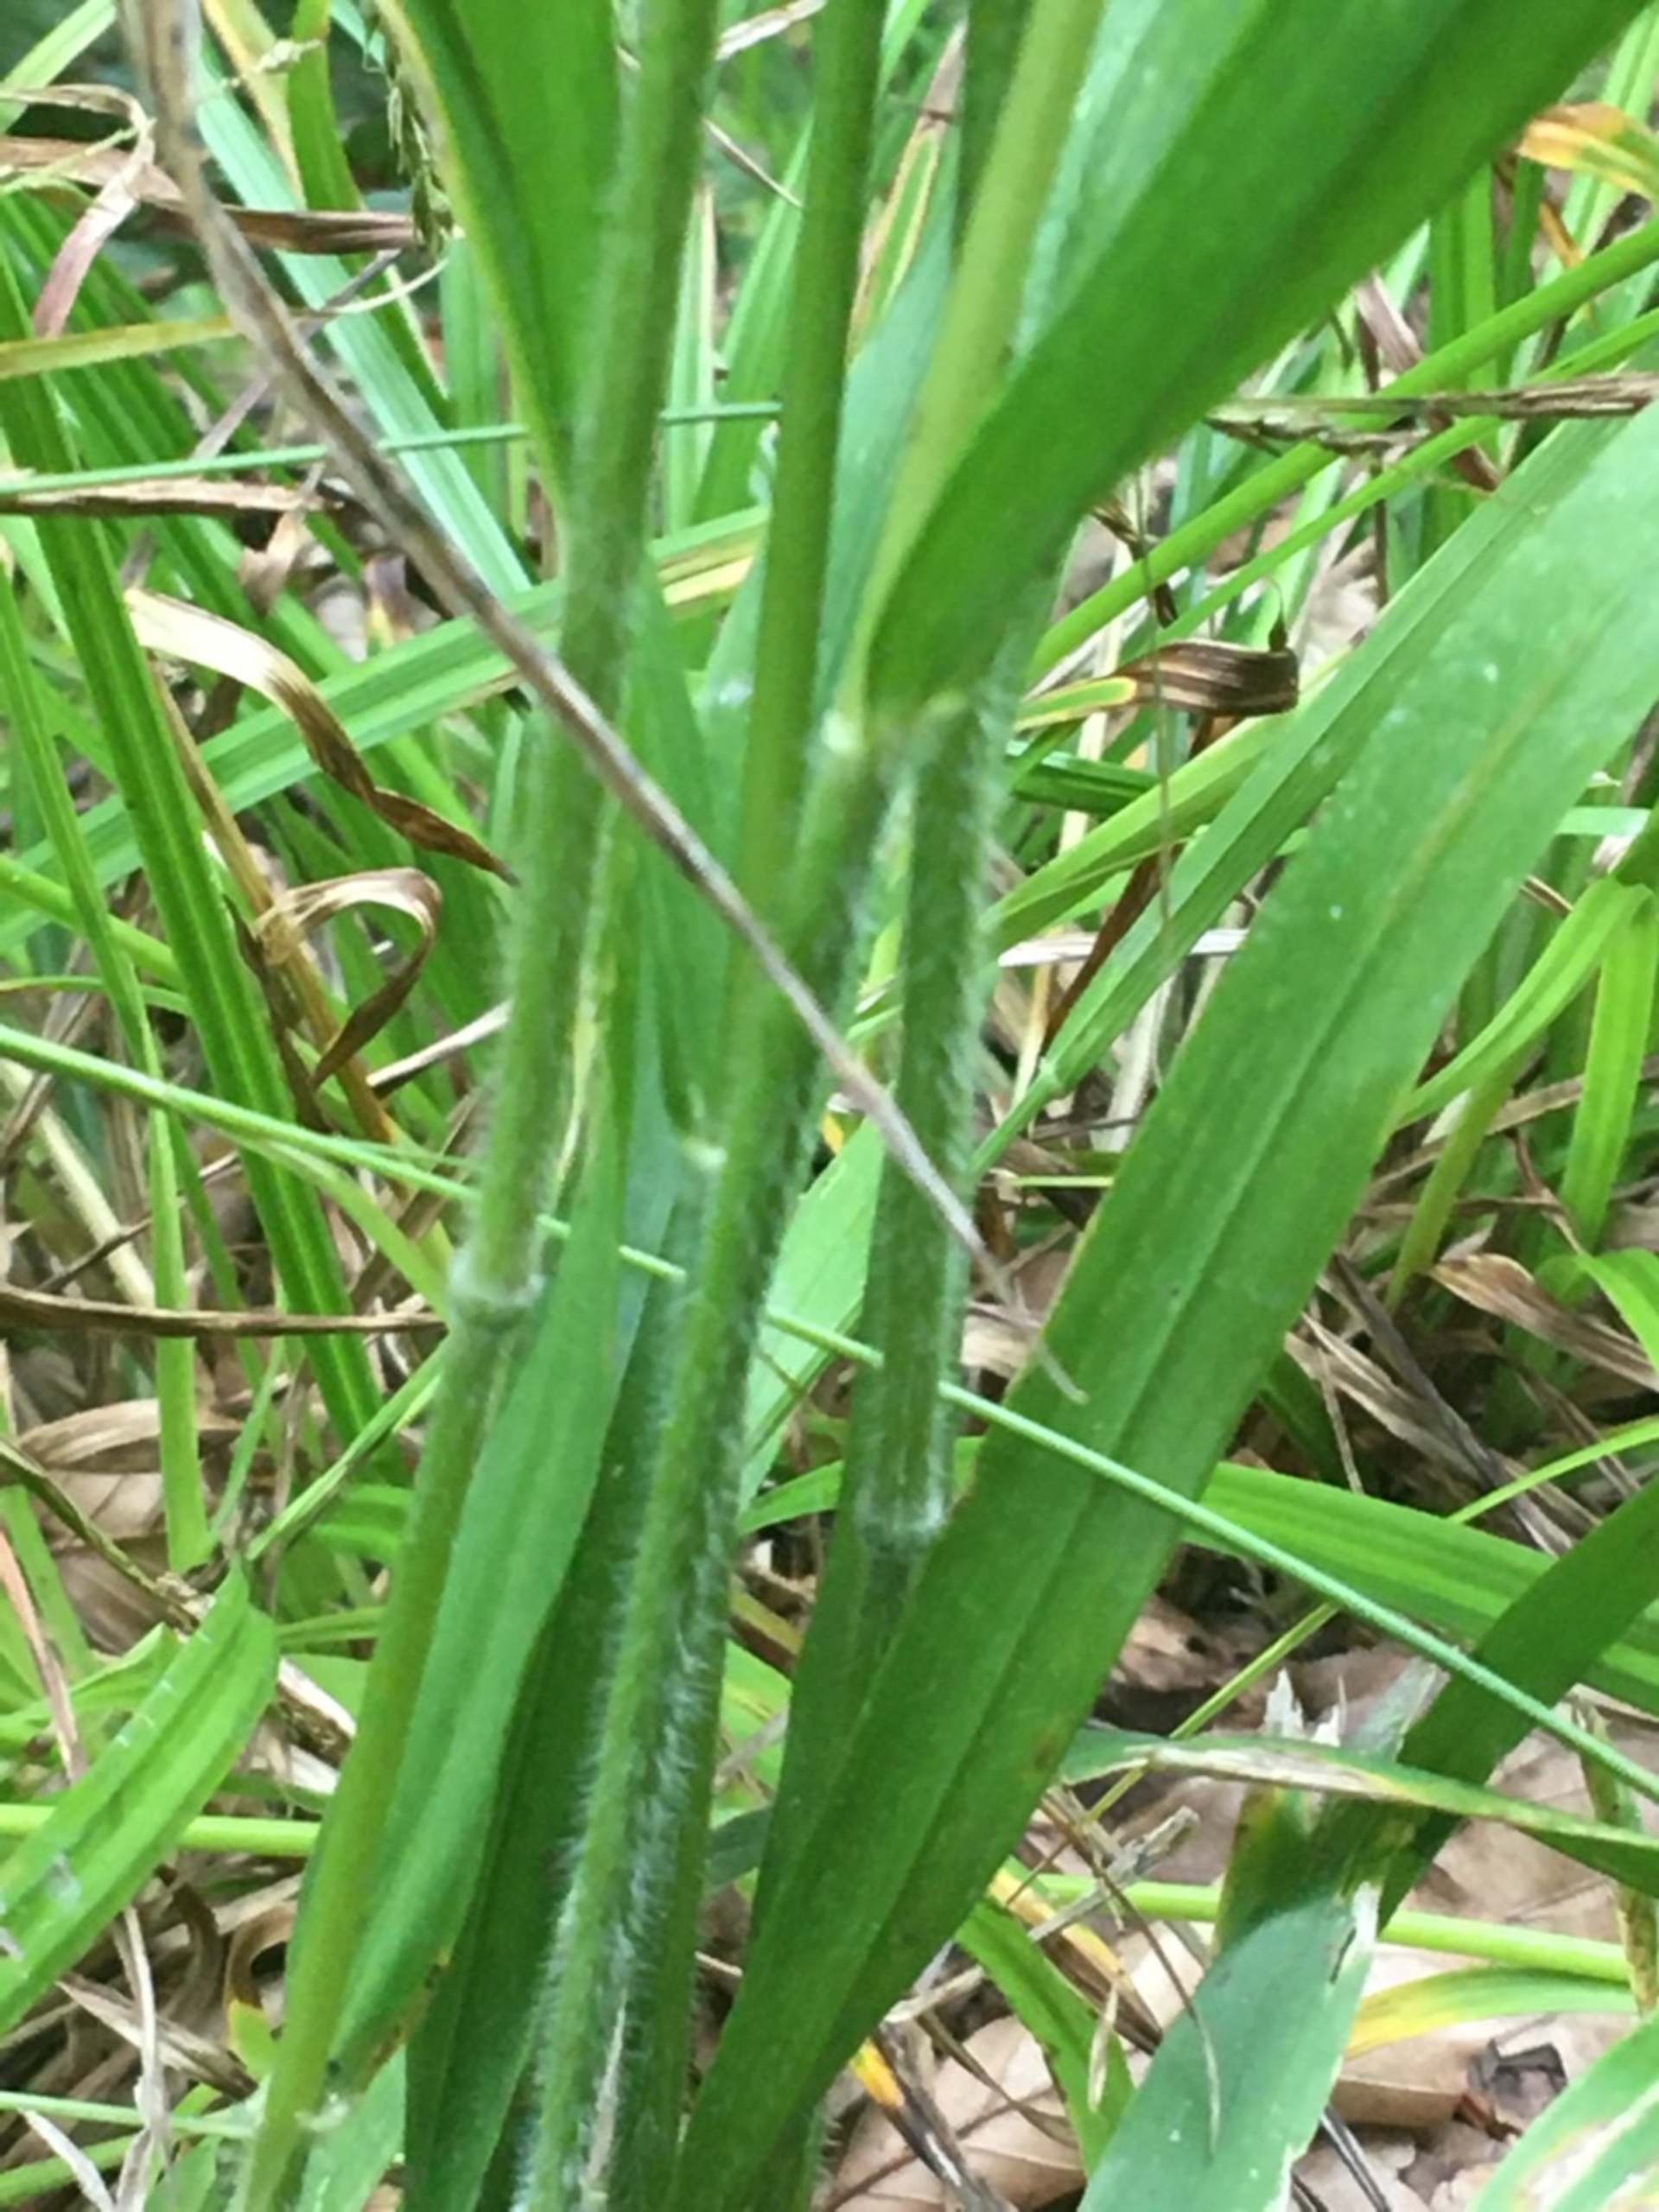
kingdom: Plantae
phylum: Tracheophyta
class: Liliopsida
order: Poales
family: Poaceae
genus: Hordelymus
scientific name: Hordelymus europaeus
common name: Skovbyg
